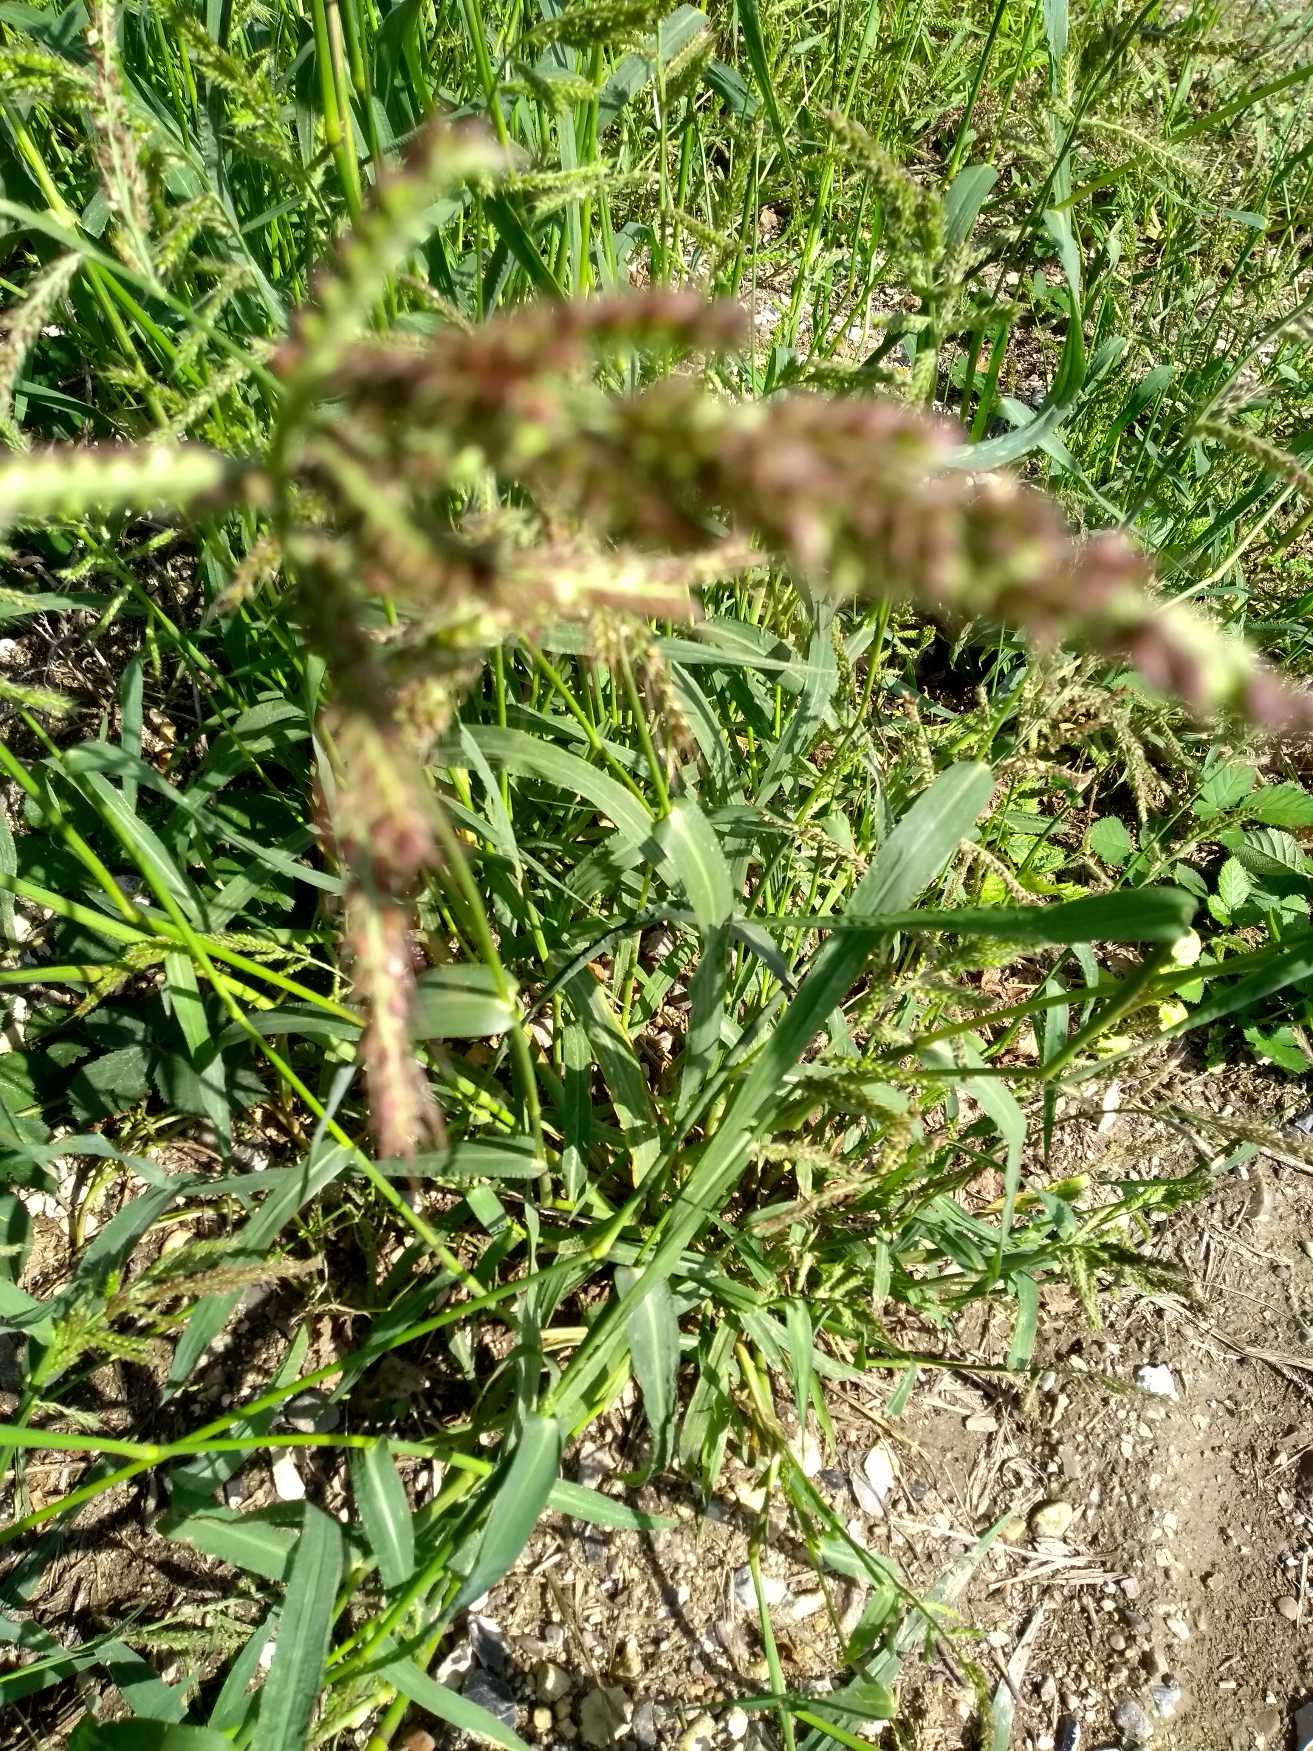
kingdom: Plantae
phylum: Tracheophyta
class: Liliopsida
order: Poales
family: Poaceae
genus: Echinochloa
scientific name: Echinochloa crus-galli
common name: Almindelig hanespore
